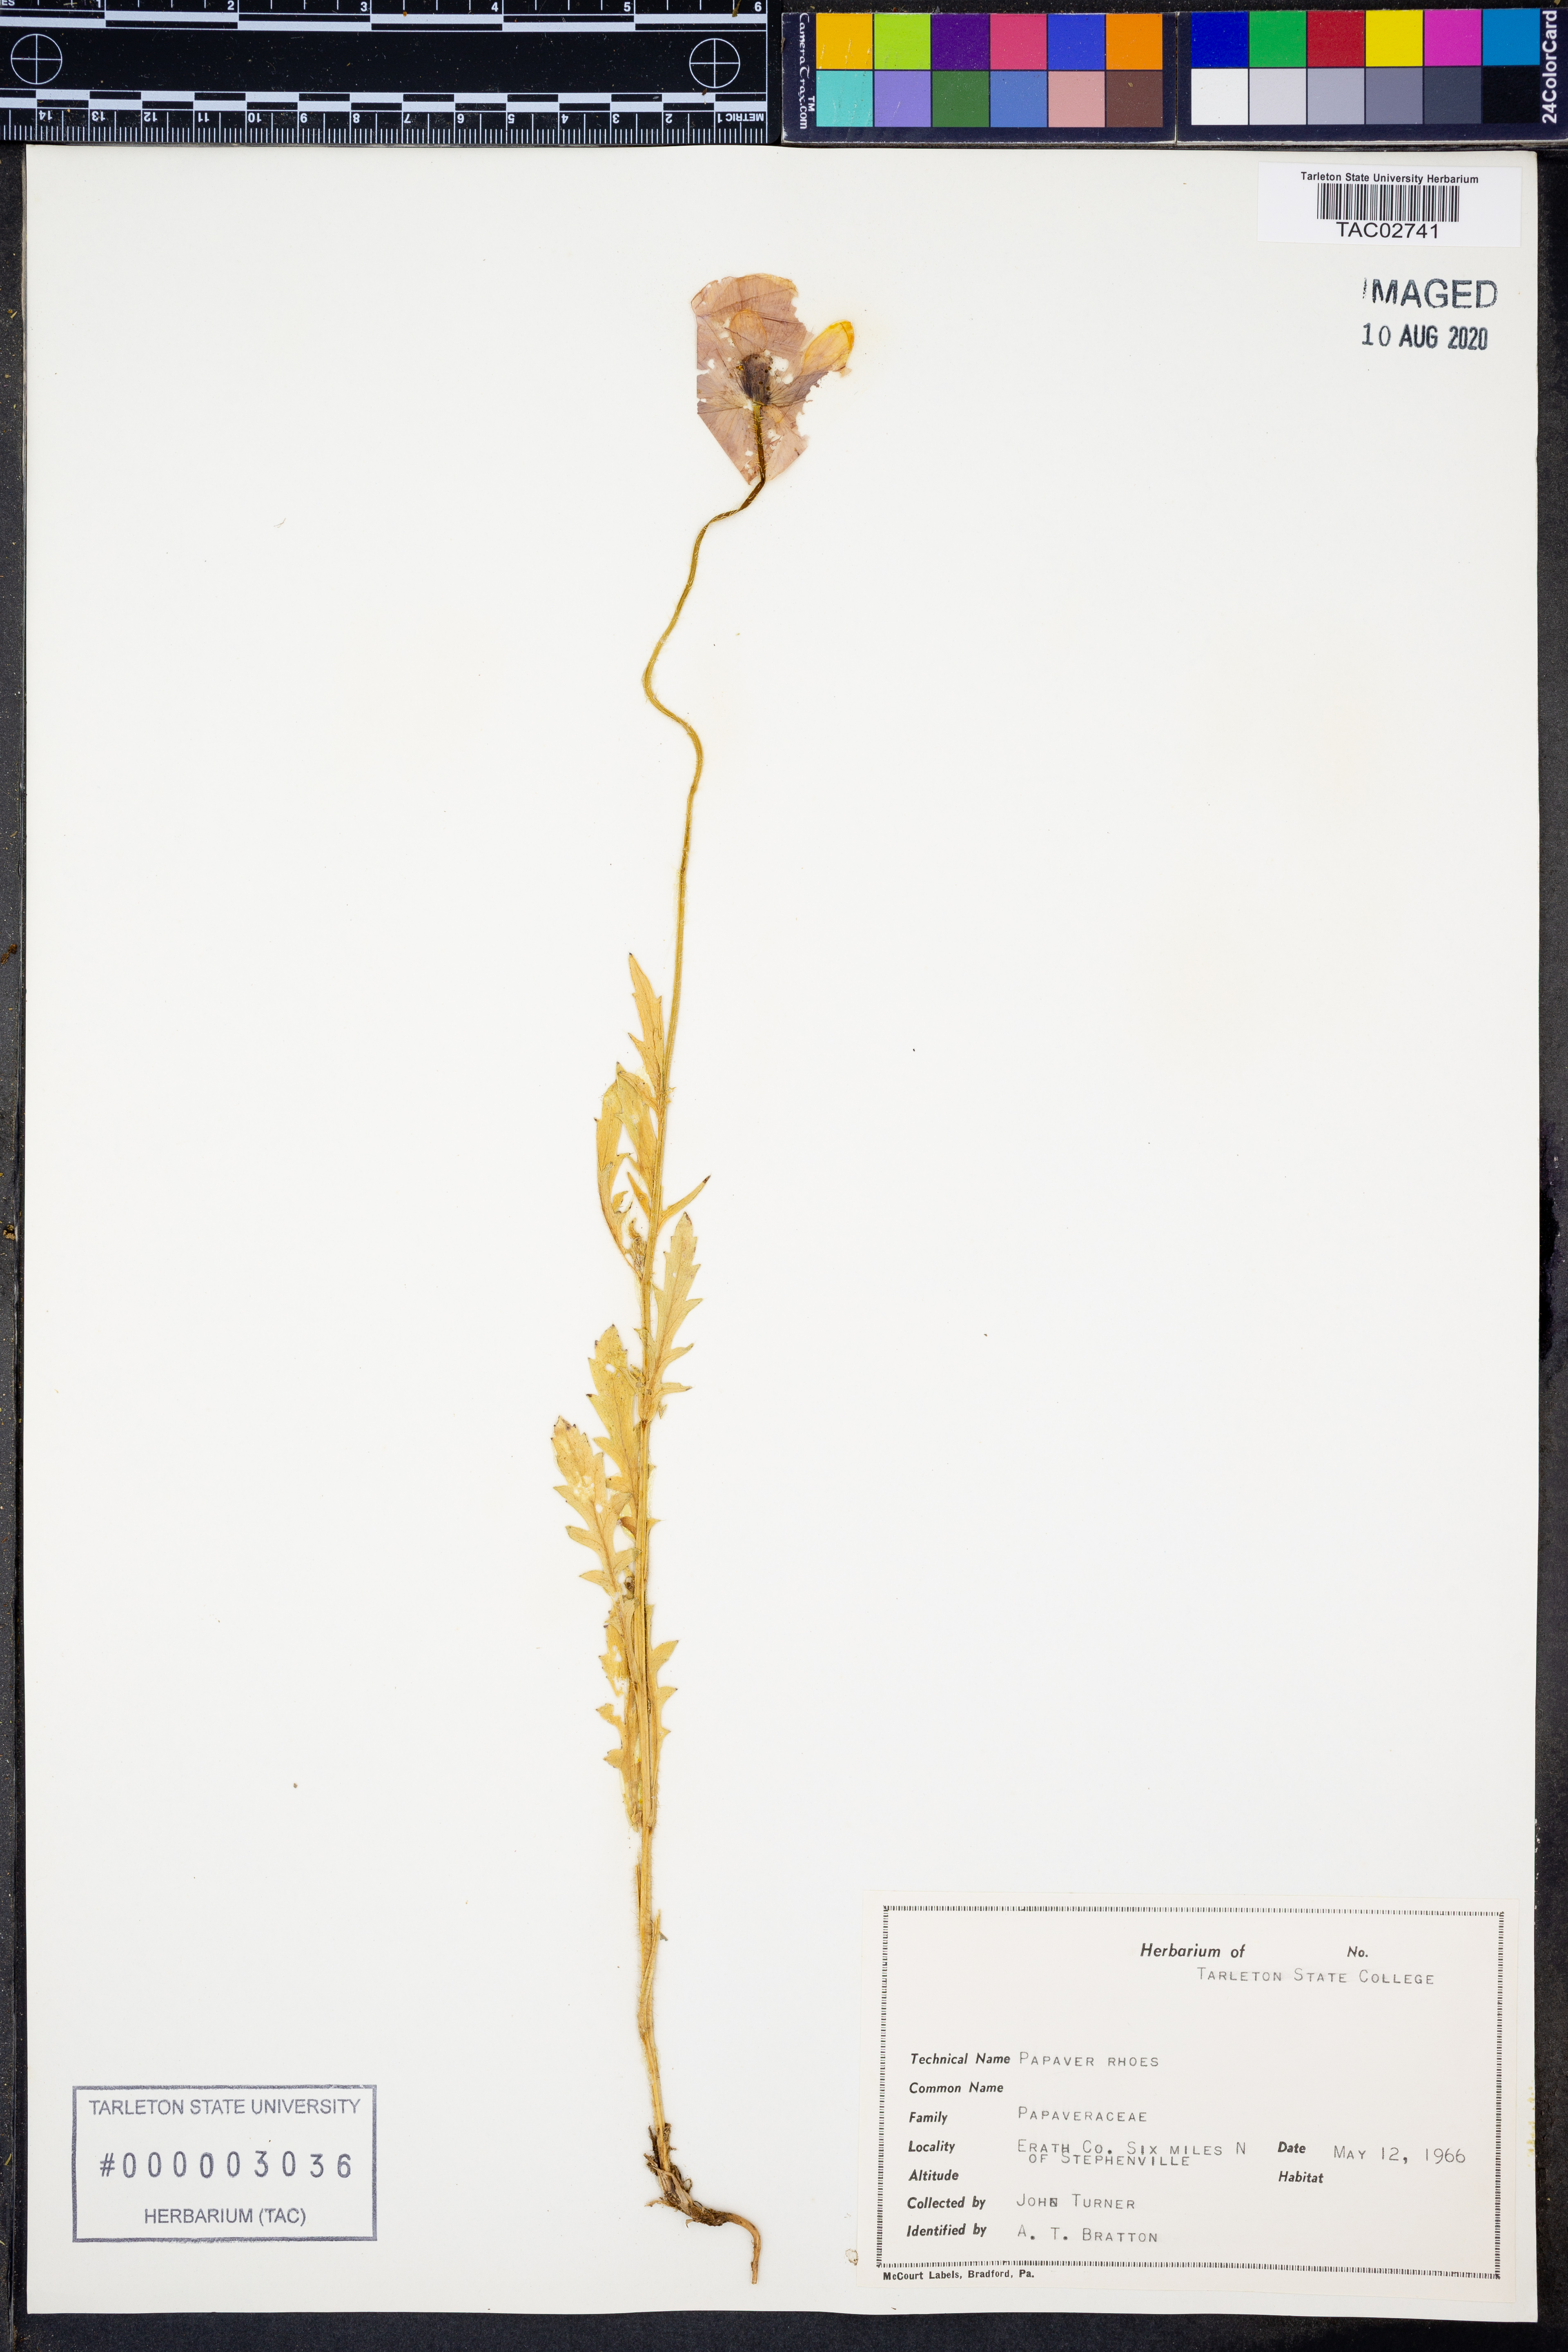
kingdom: Plantae
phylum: Tracheophyta
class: Magnoliopsida
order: Ranunculales
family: Papaveraceae
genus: Papaver
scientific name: Papaver rhoeas
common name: Corn poppy
